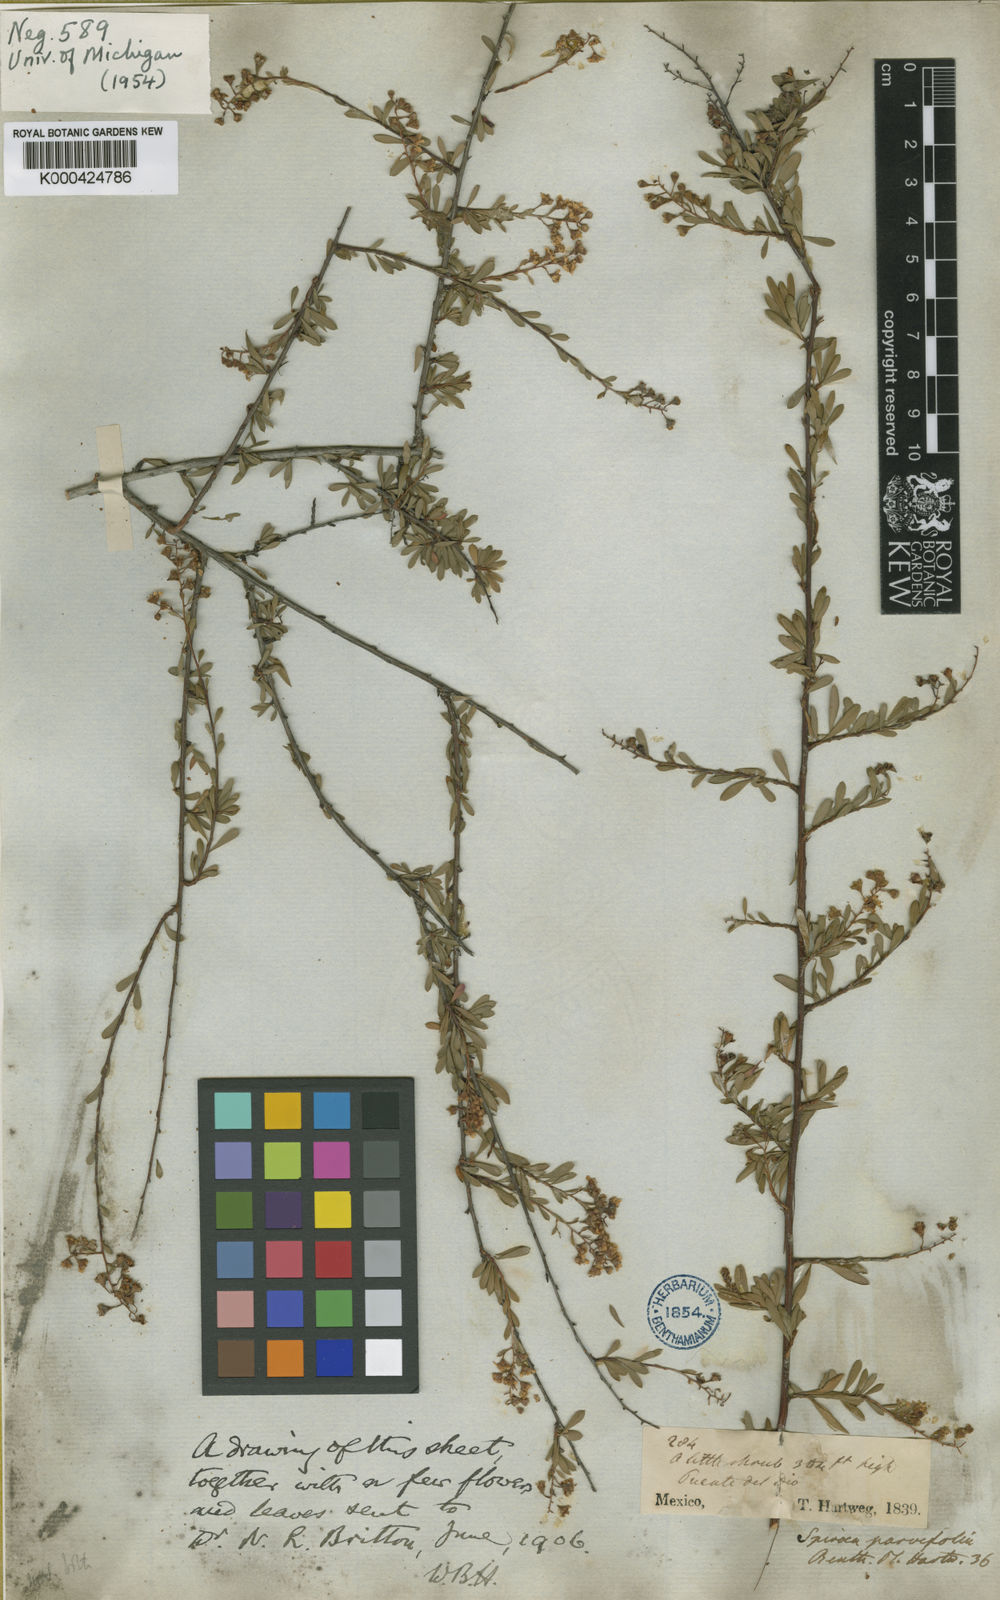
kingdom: Plantae
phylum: Tracheophyta
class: Magnoliopsida
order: Rosales
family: Rosaceae
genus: Spiraea
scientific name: Spiraea
